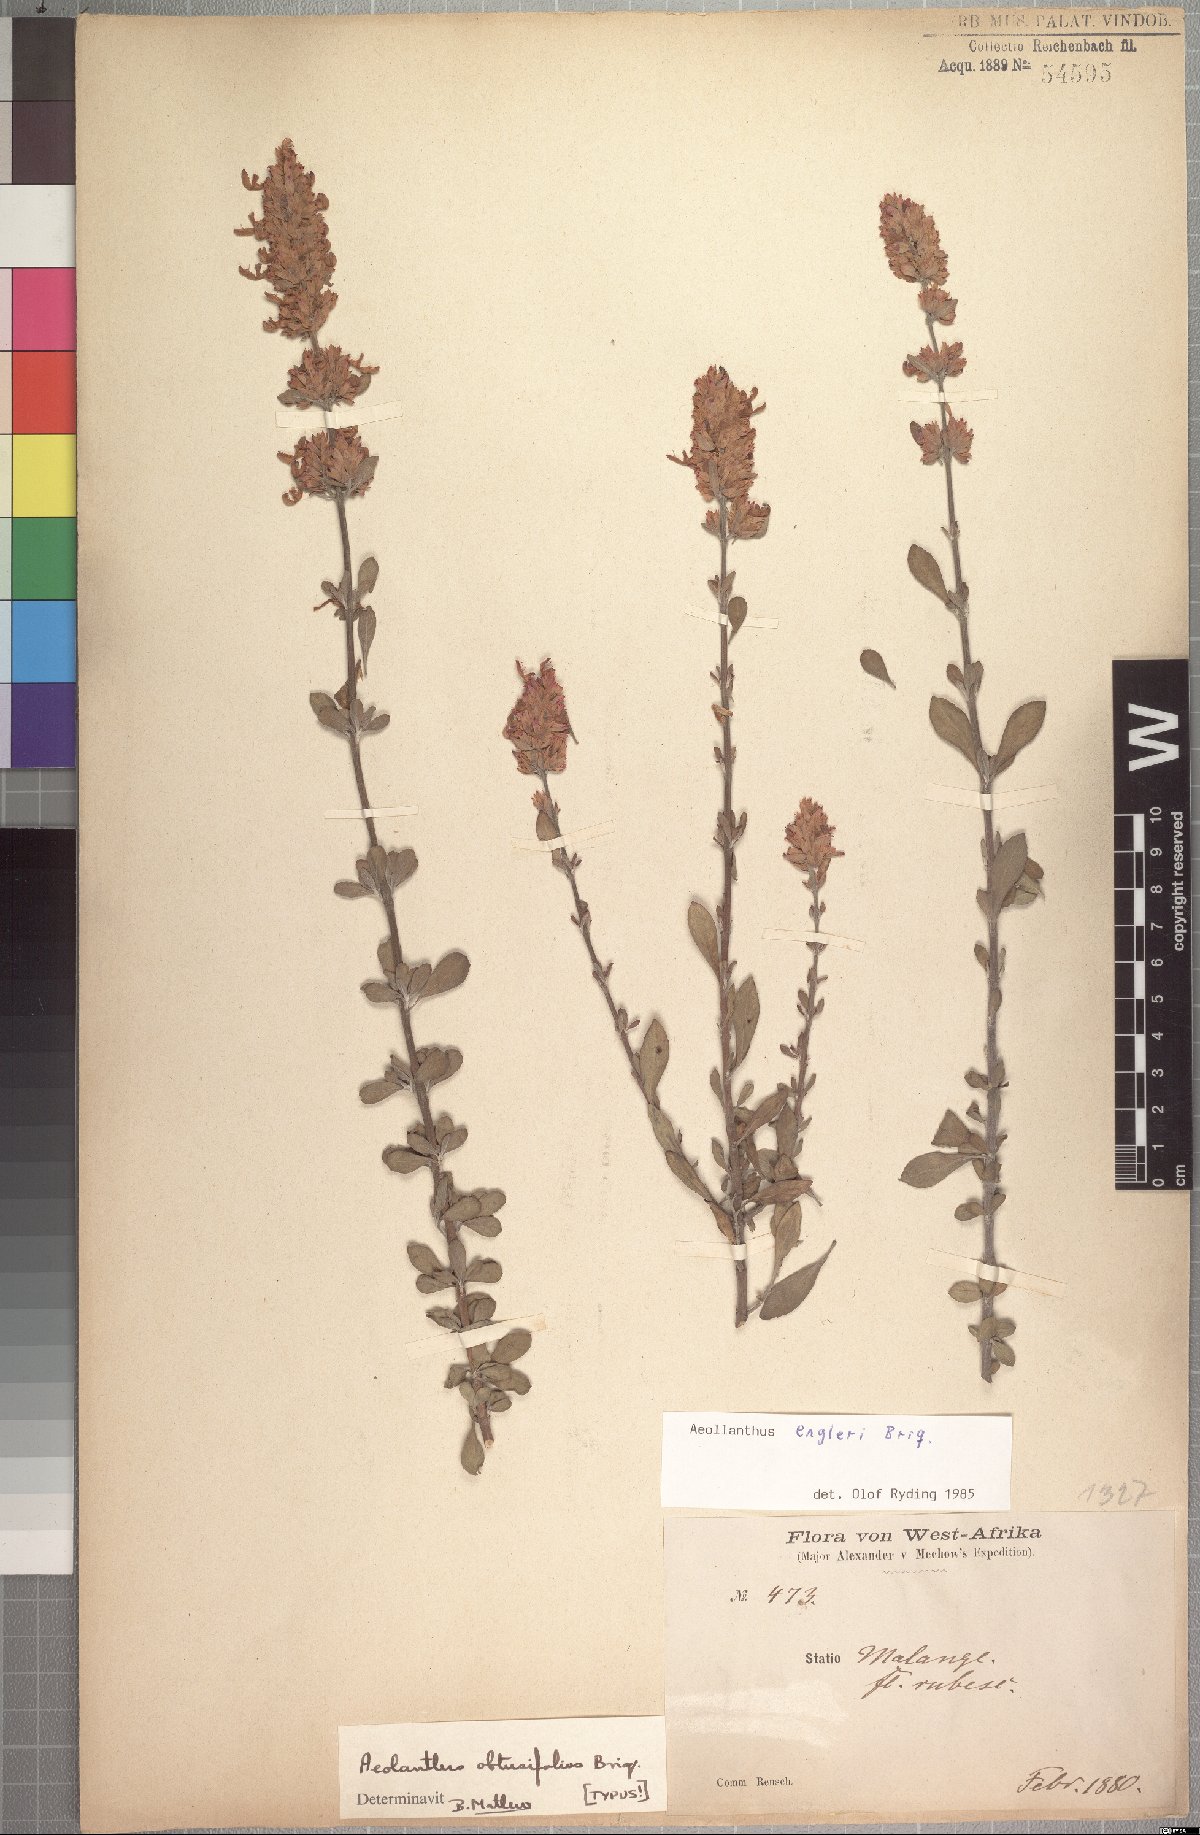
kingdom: Plantae
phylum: Tracheophyta
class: Magnoliopsida
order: Lamiales
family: Lamiaceae
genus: Aeollanthus
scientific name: Aeollanthus engleri
